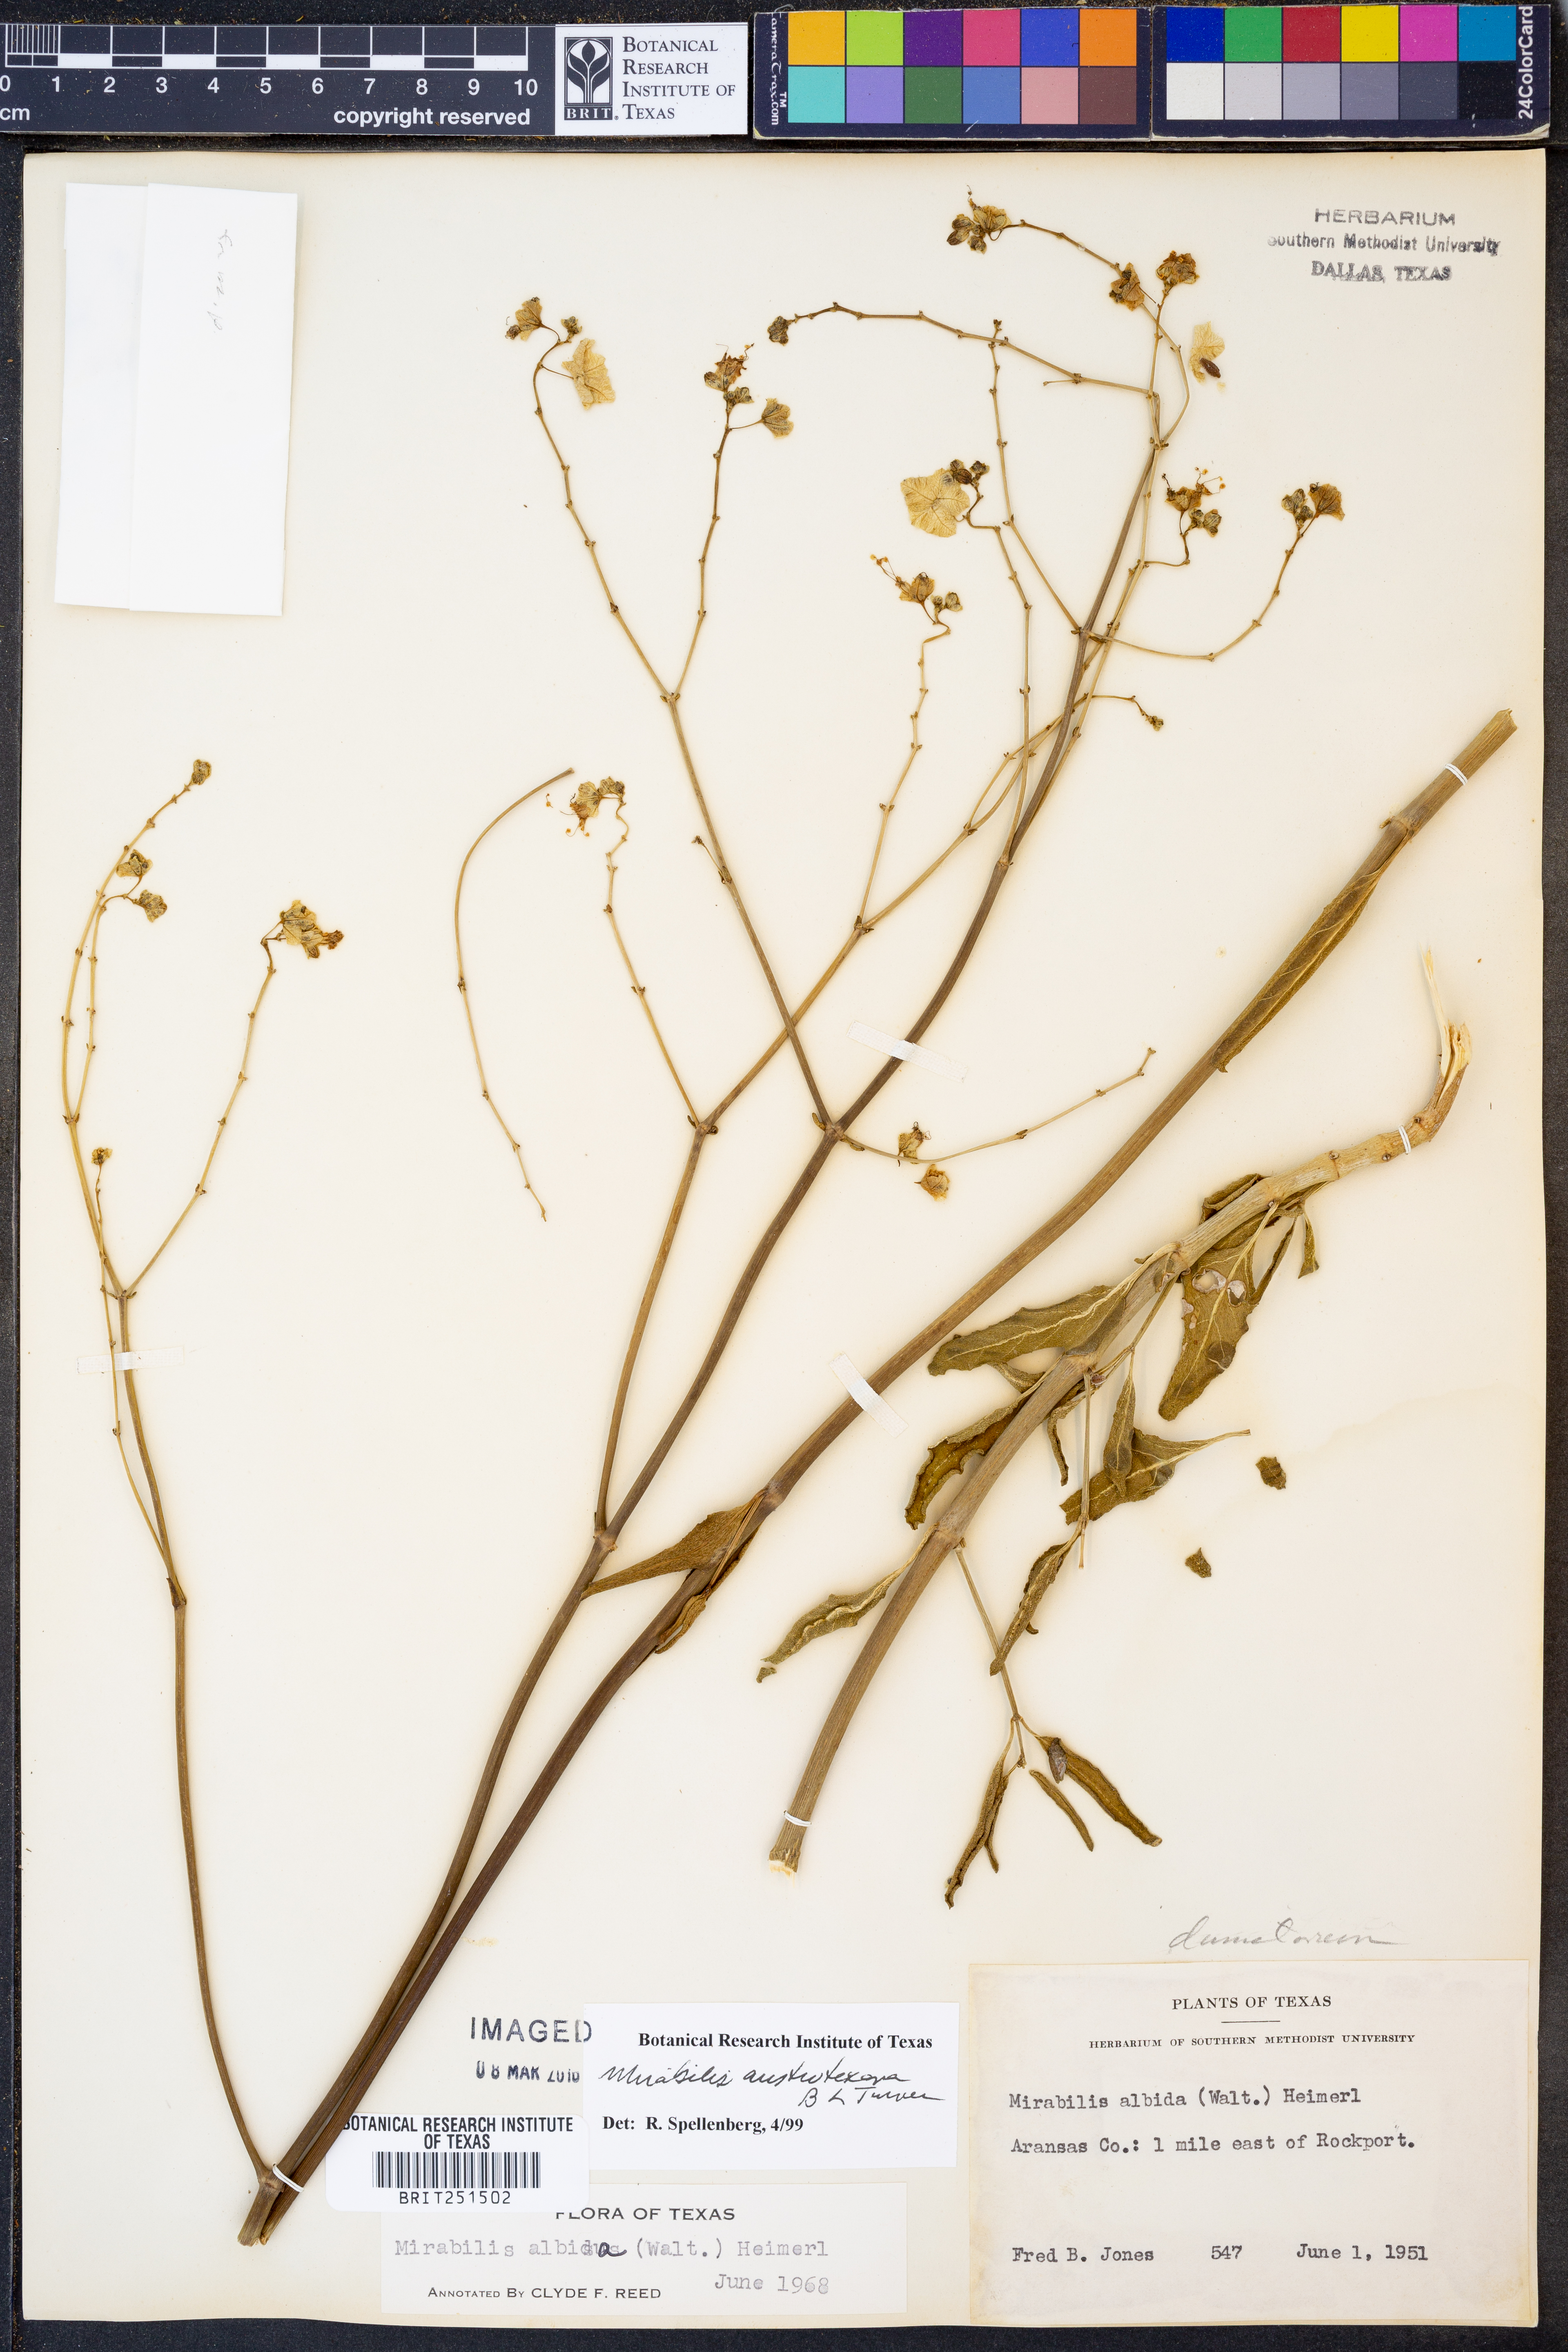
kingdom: Plantae
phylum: Tracheophyta
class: Magnoliopsida
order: Caryophyllales
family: Nyctaginaceae
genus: Mirabilis
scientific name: Mirabilis austrotexana
